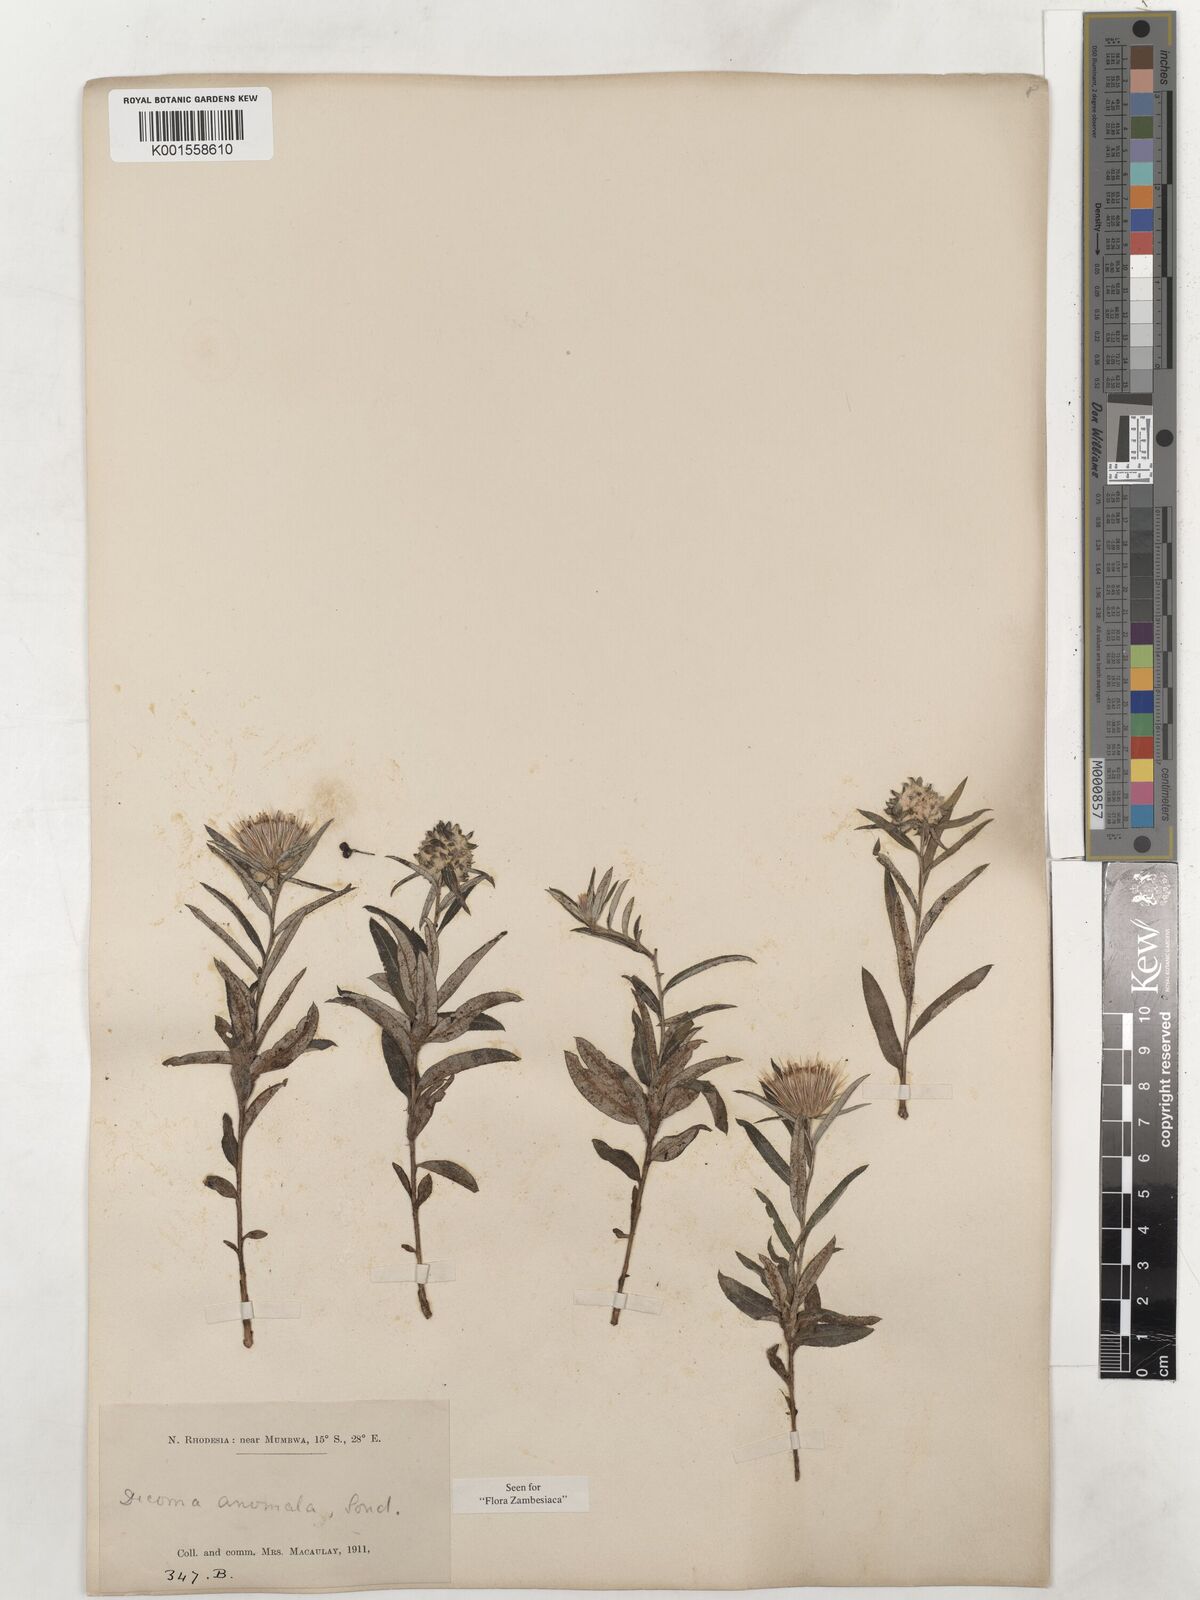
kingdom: Plantae
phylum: Tracheophyta
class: Magnoliopsida
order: Asterales
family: Asteraceae
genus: Dicoma
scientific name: Dicoma anomala
